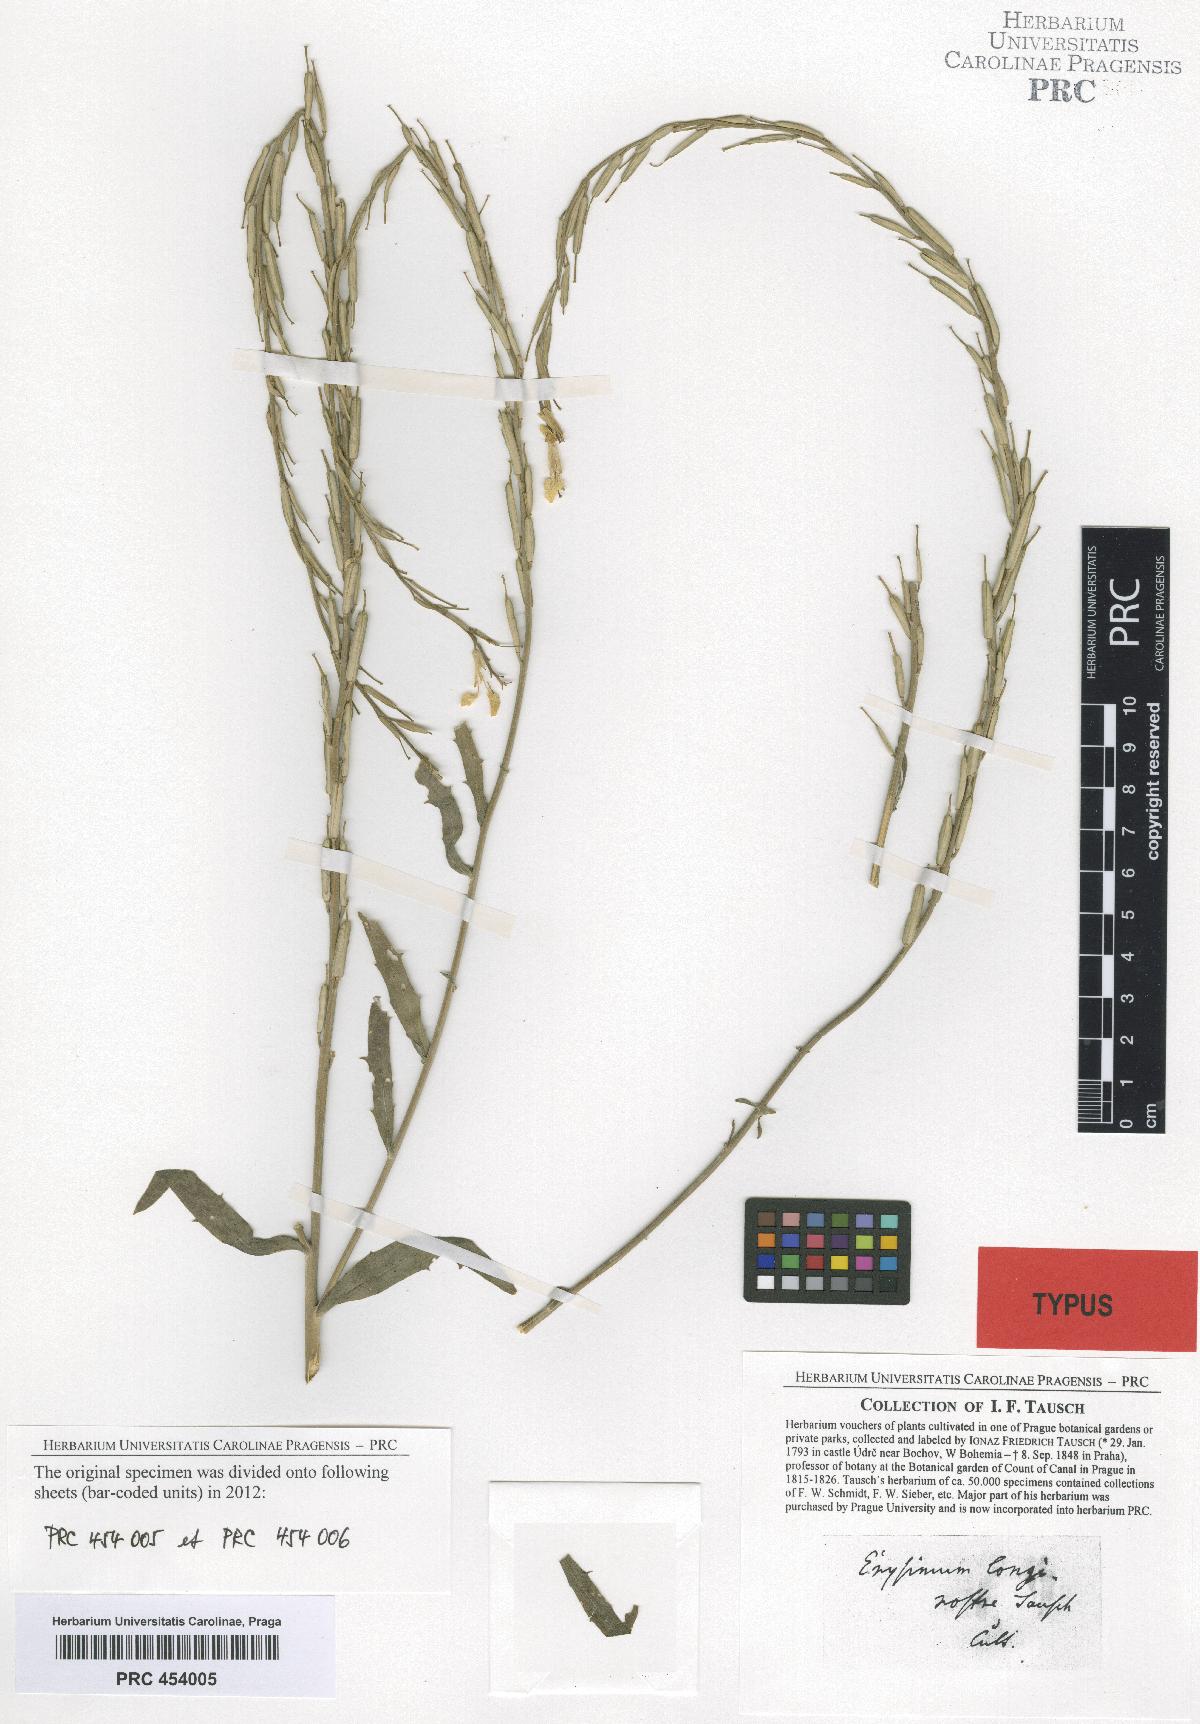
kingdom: Plantae
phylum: Tracheophyta
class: Magnoliopsida
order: Brassicales
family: Brassicaceae
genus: Erysimum
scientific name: Erysimum longirostre
